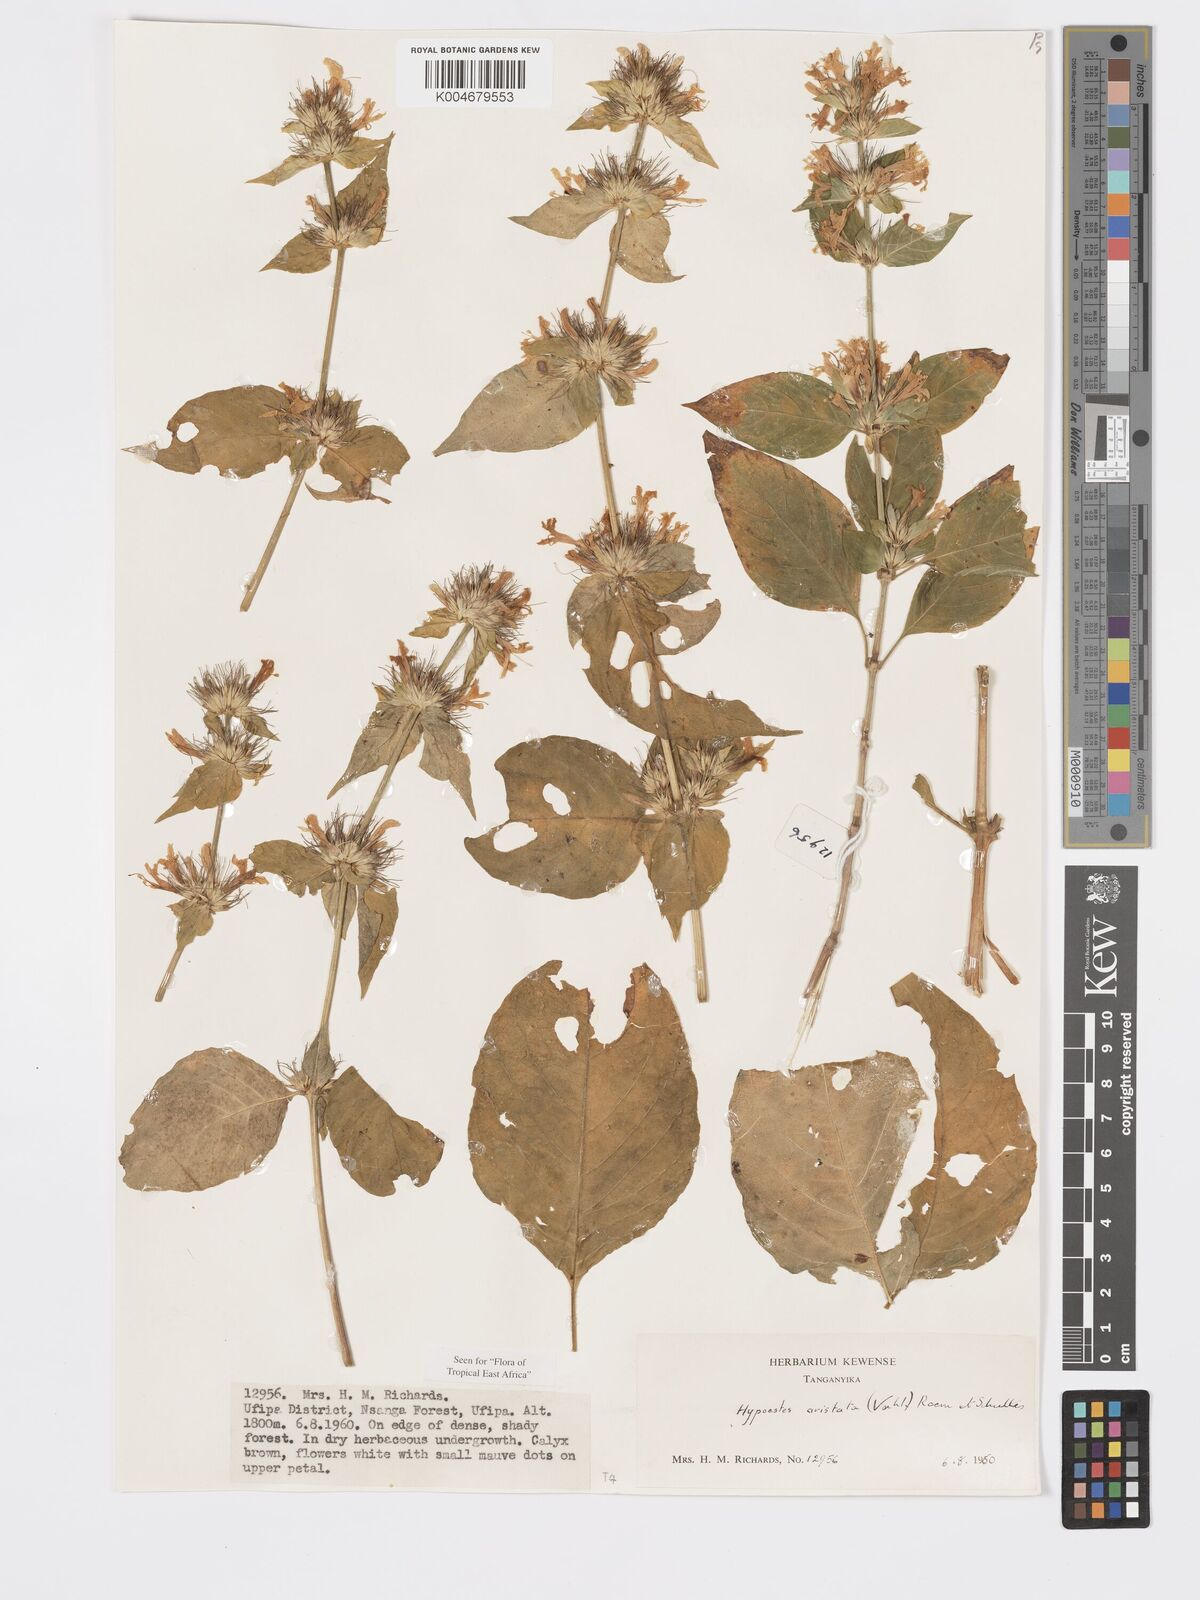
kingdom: Plantae
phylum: Tracheophyta
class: Magnoliopsida
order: Lamiales
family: Acanthaceae
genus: Hypoestes
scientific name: Hypoestes
